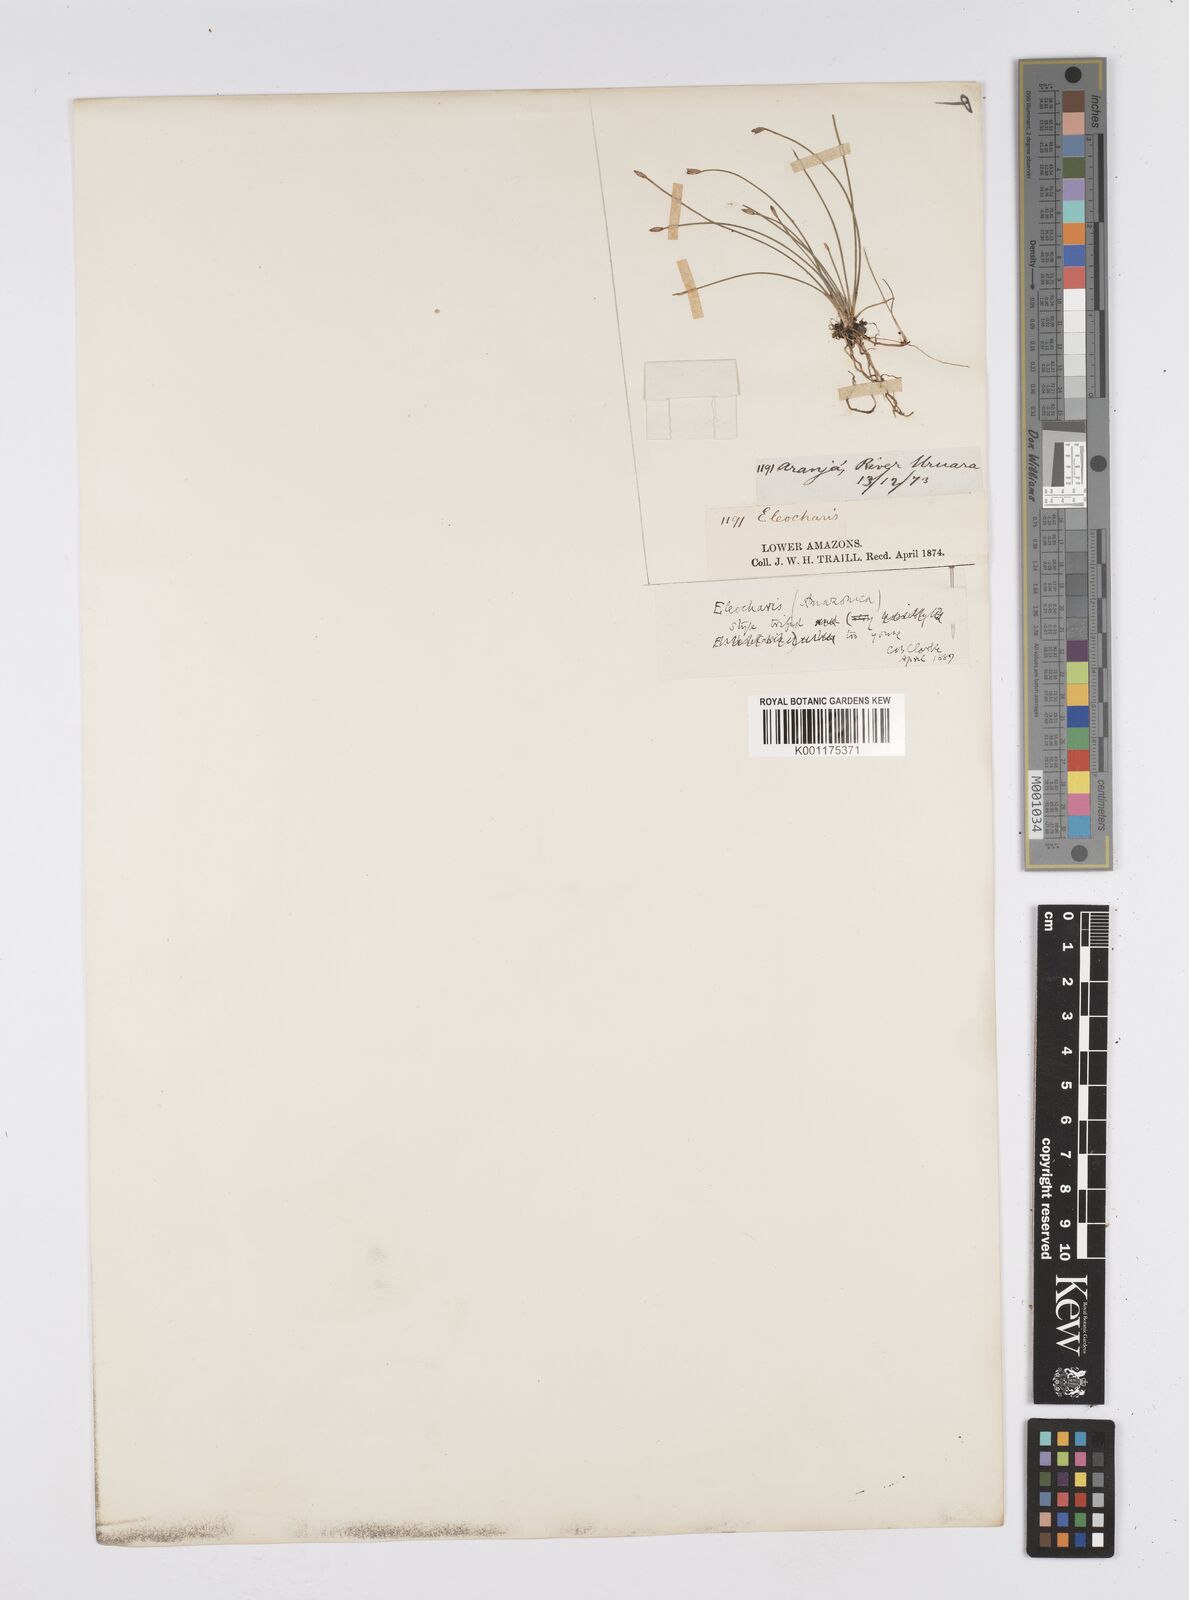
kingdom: Plantae
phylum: Tracheophyta
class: Liliopsida
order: Poales
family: Cyperaceae
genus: Eleocharis
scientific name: Eleocharis amazonica
